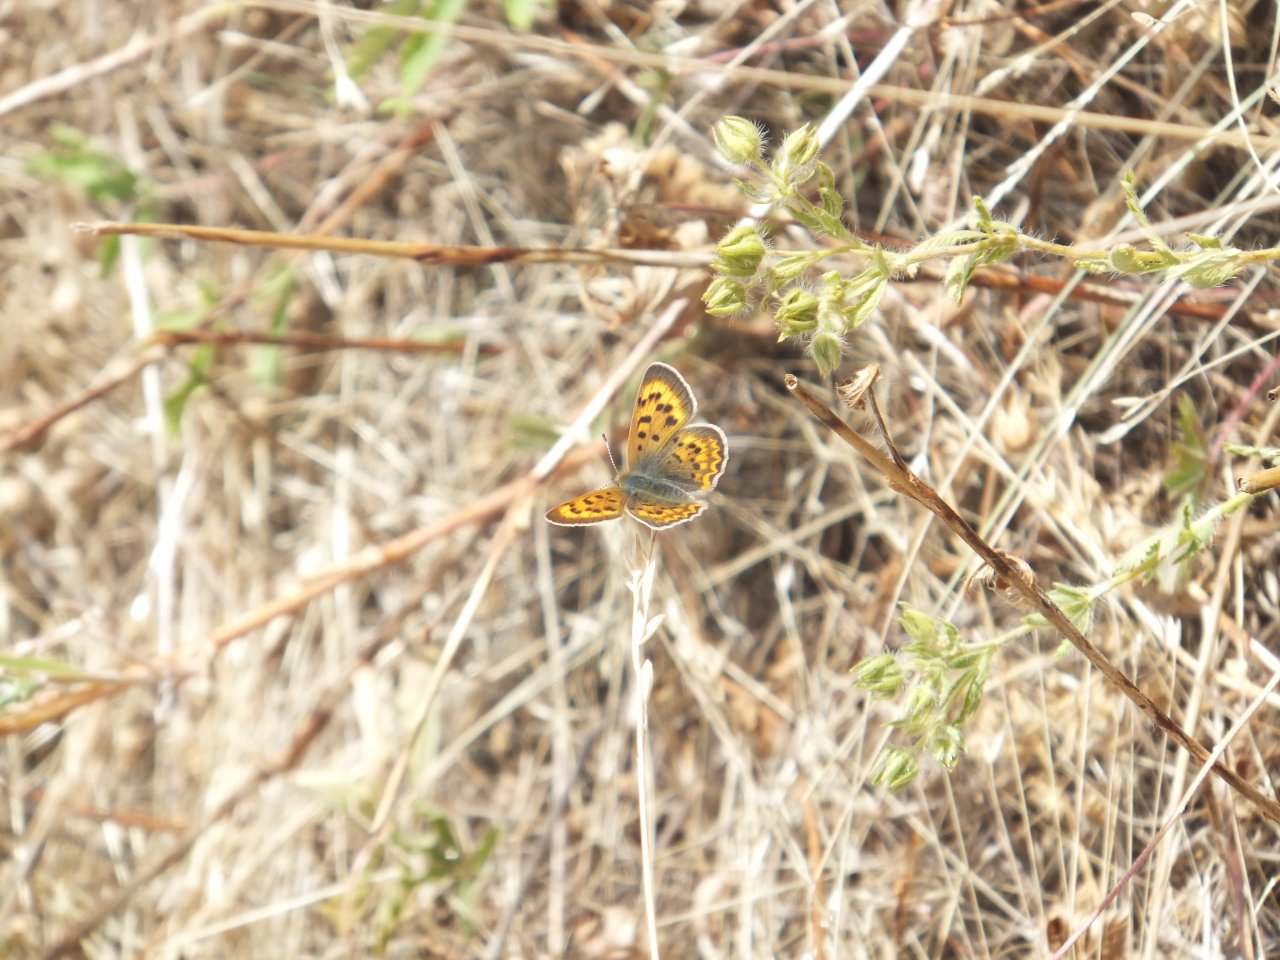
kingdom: Animalia
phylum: Arthropoda
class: Insecta
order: Lepidoptera
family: Sesiidae
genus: Sesia
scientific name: Sesia Lycaena helloides
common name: Purplish Copper
